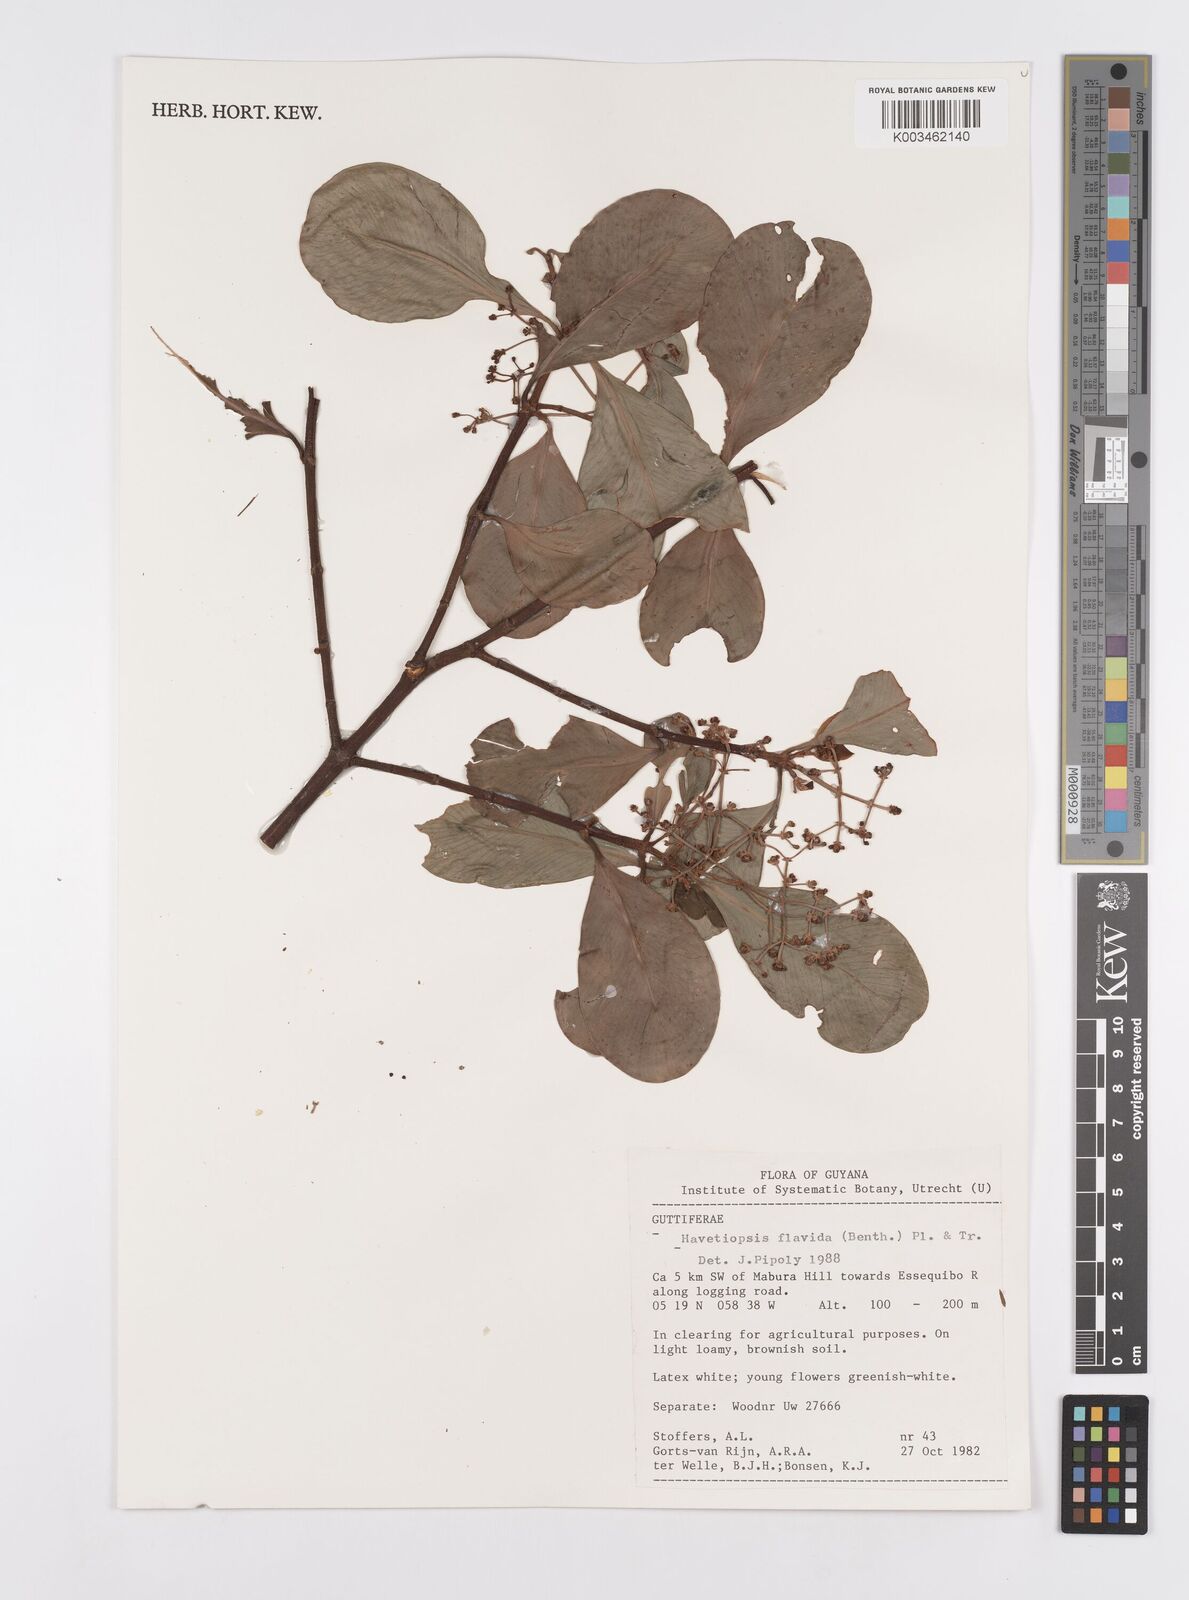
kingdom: Plantae
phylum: Tracheophyta
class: Magnoliopsida
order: Malpighiales
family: Clusiaceae
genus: Clusia
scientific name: Clusia flavida
